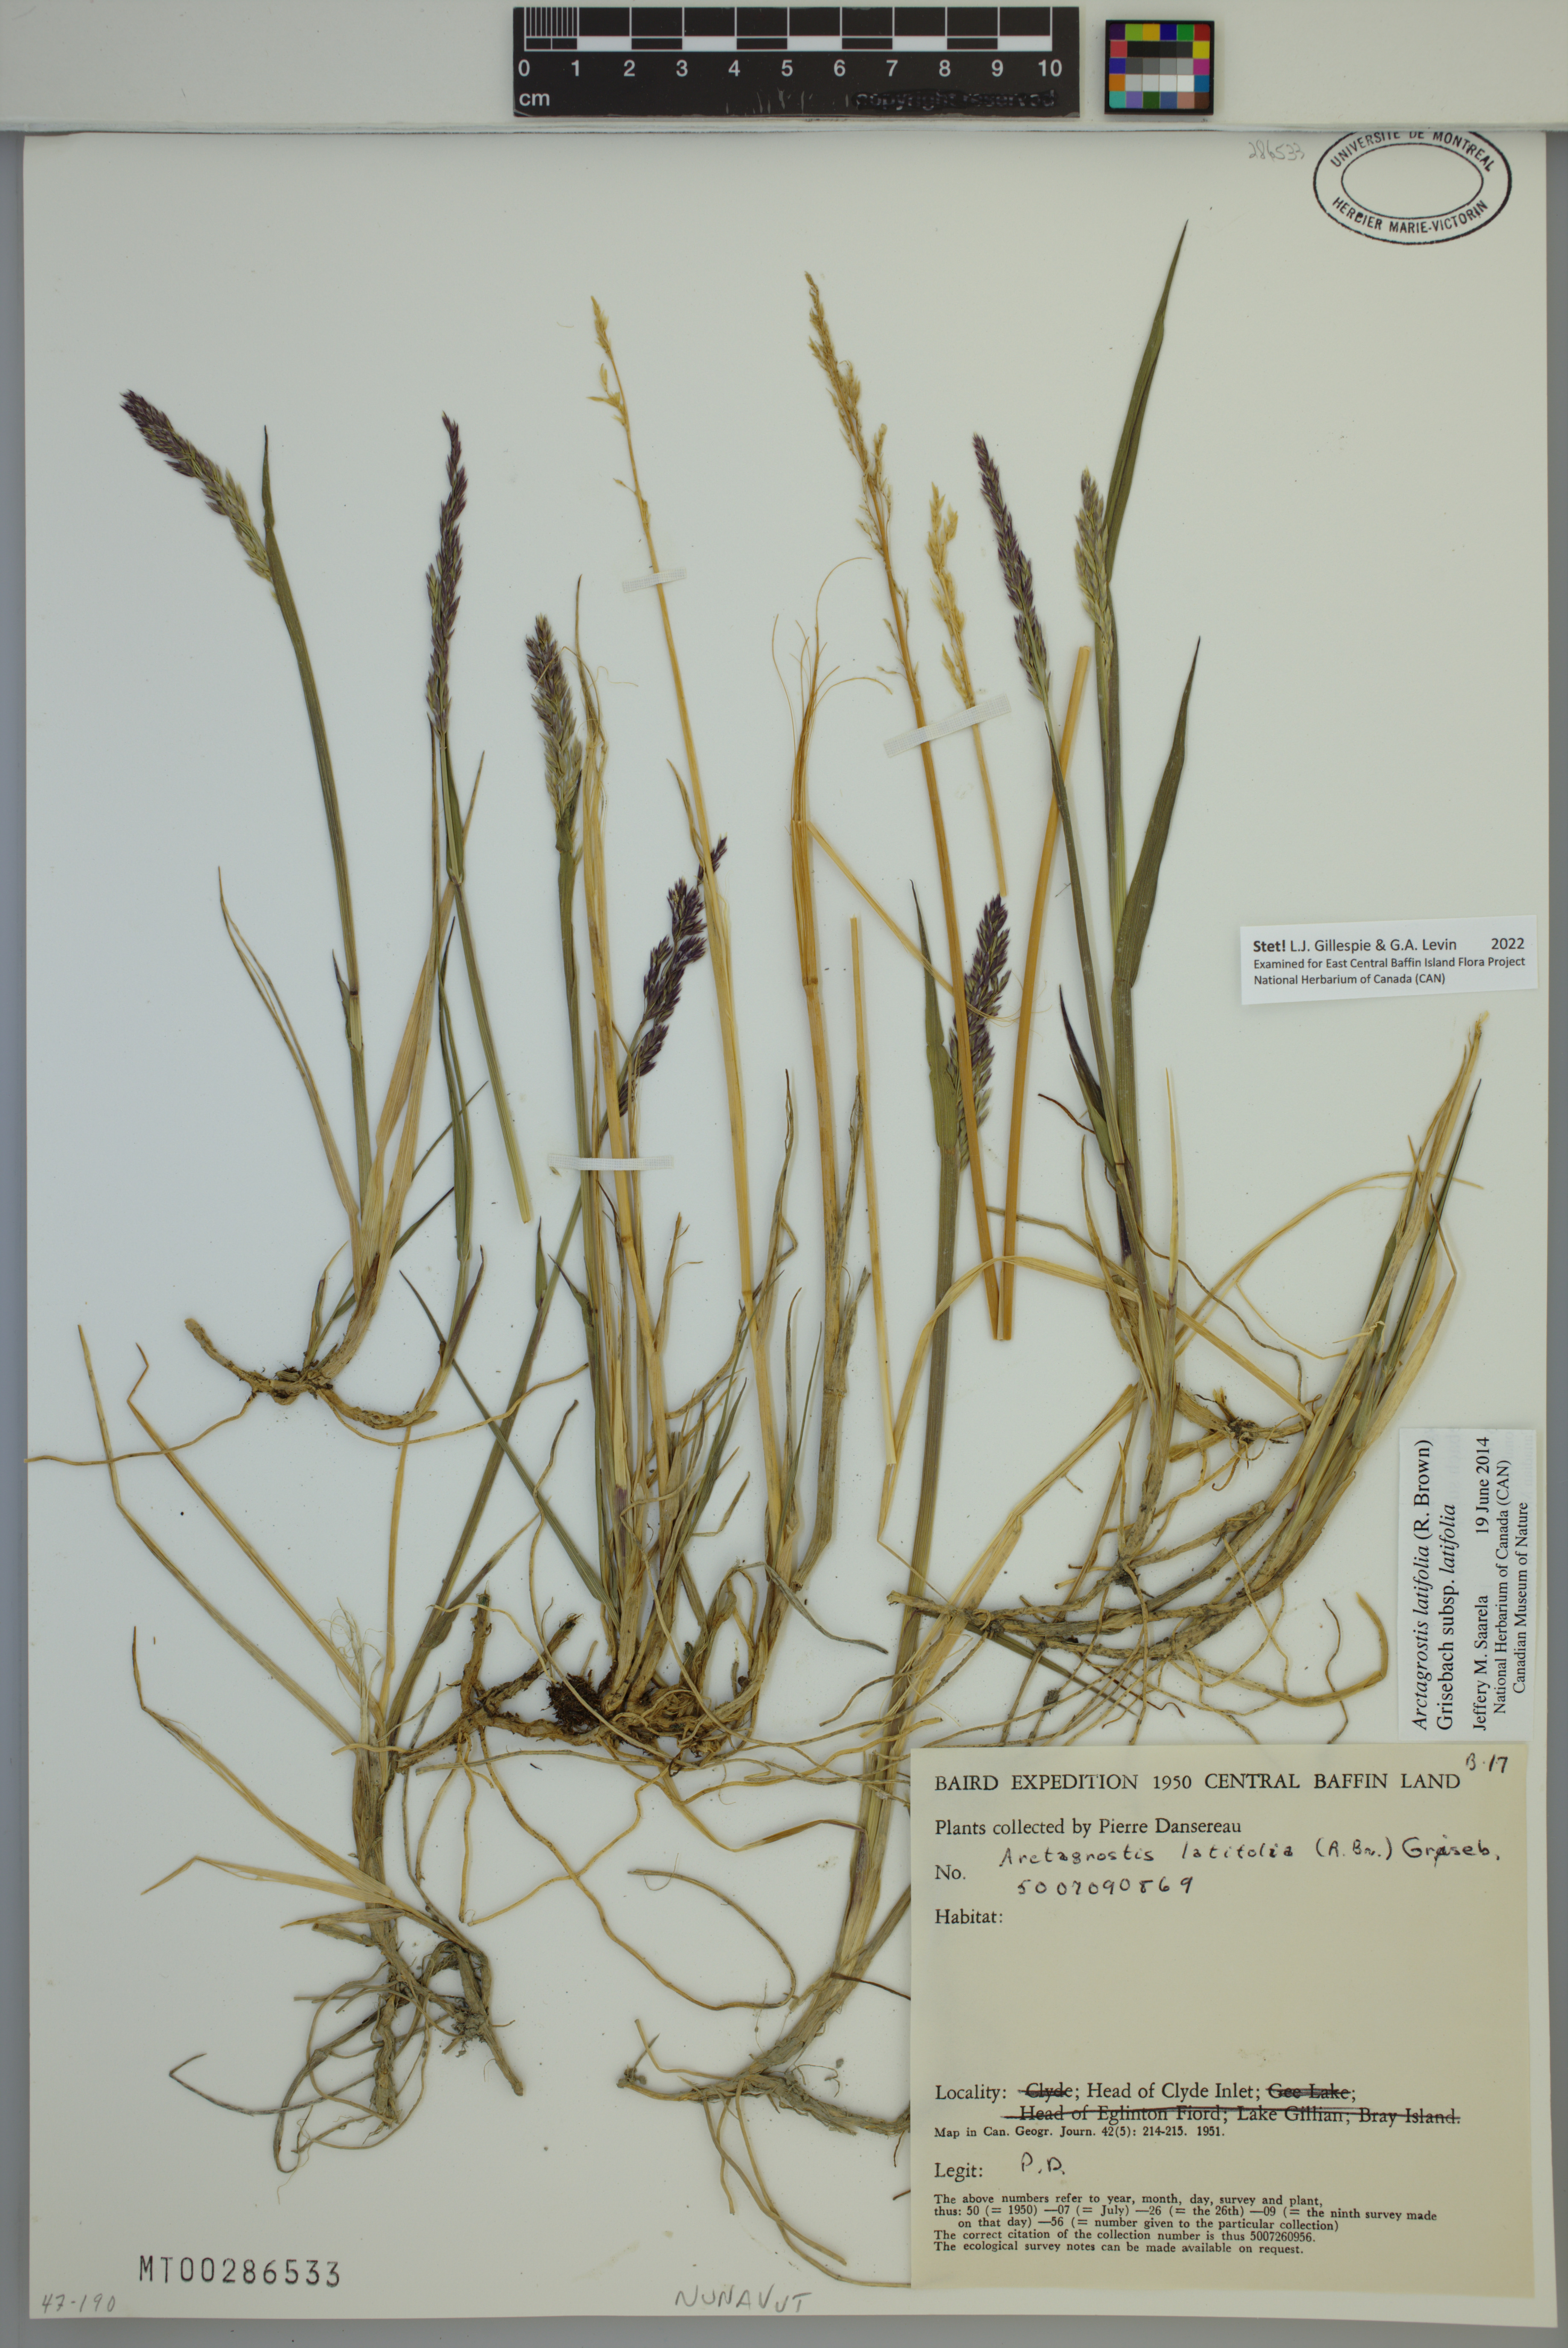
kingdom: Plantae
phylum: Tracheophyta
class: Liliopsida
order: Poales
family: Poaceae
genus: Arctagrostis
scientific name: Arctagrostis latifolia
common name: Arctic grass
